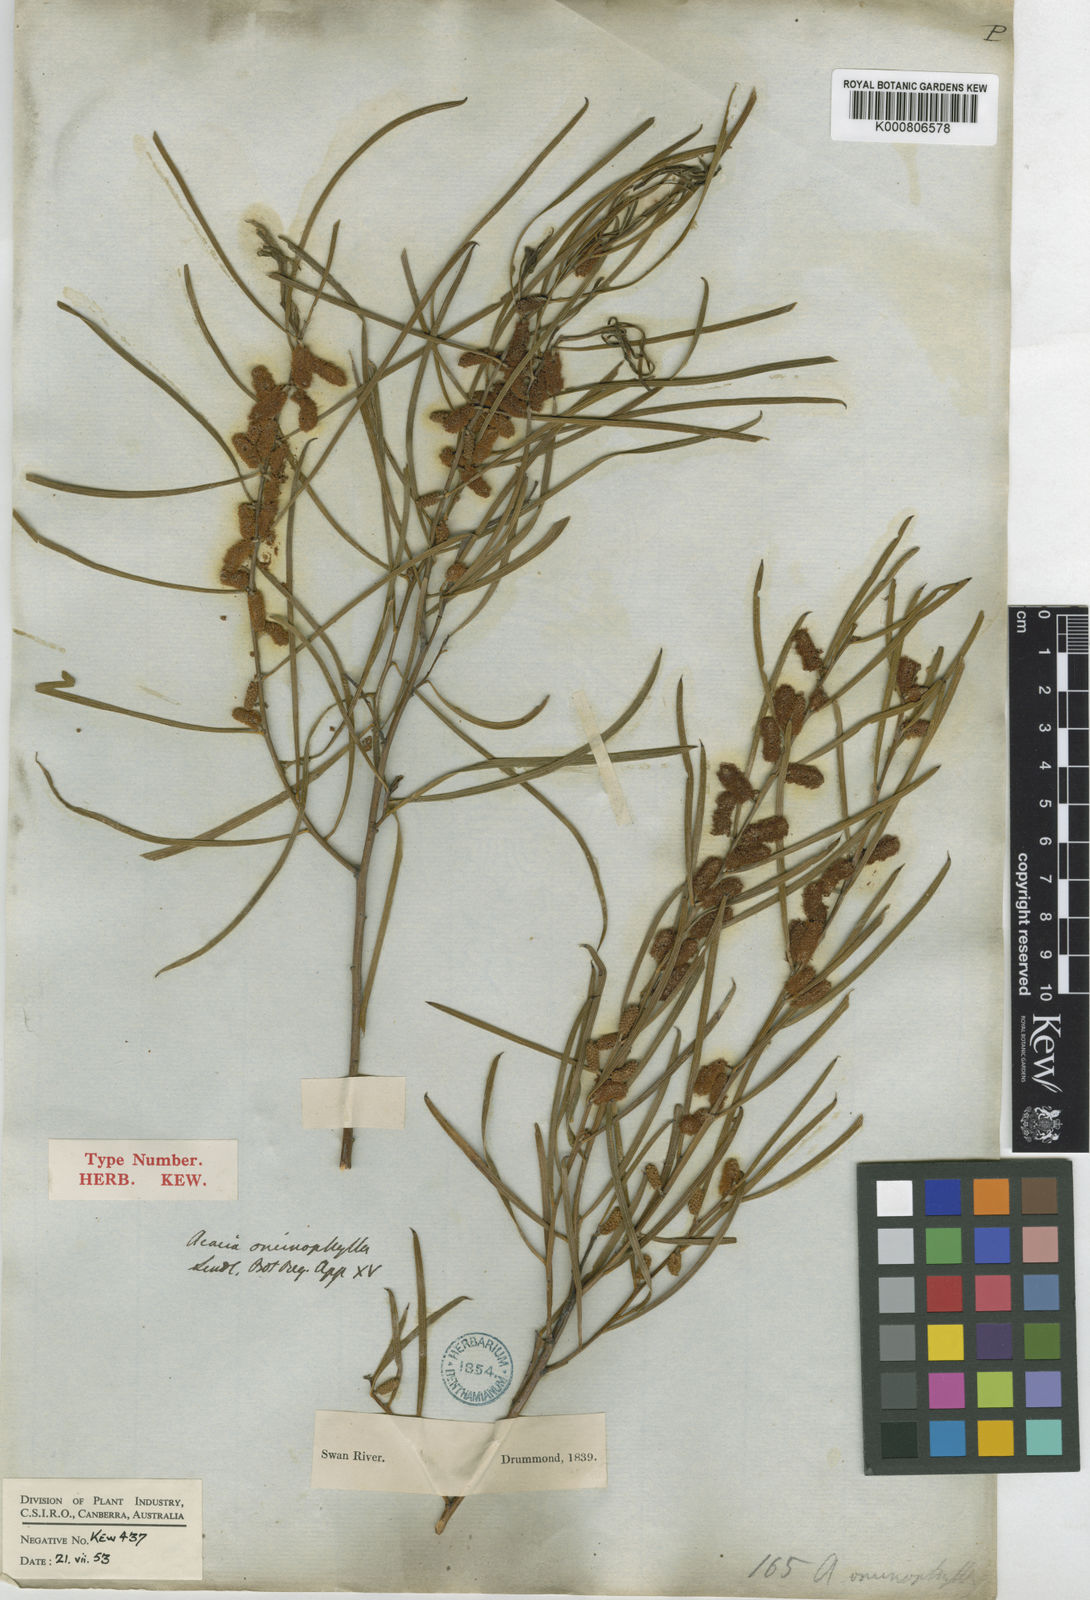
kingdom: Plantae
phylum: Tracheophyta
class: Magnoliopsida
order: Fabales
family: Fabaceae
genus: Acacia
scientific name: Acacia oncinophylla
